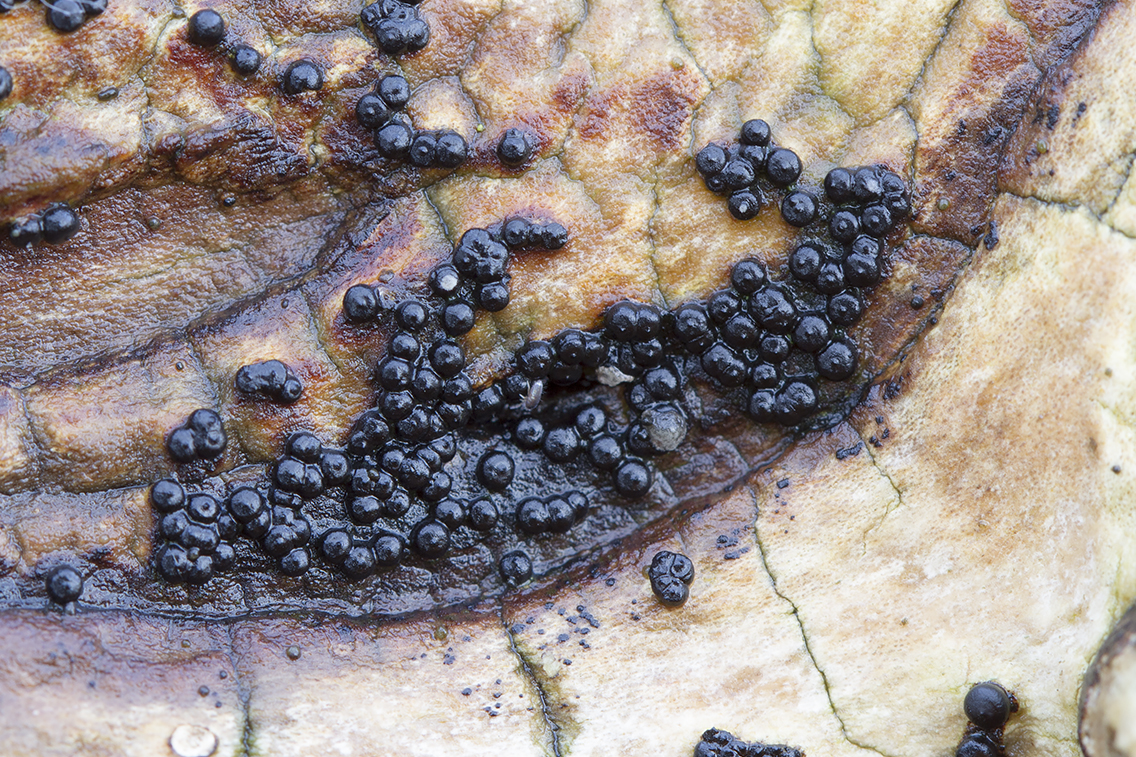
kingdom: Fungi
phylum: Ascomycota
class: Sordariomycetes
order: Xylariales
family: Xylariaceae
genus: Rosellinia
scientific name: Rosellinia marcucciana
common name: måtteløs kulkaviar
